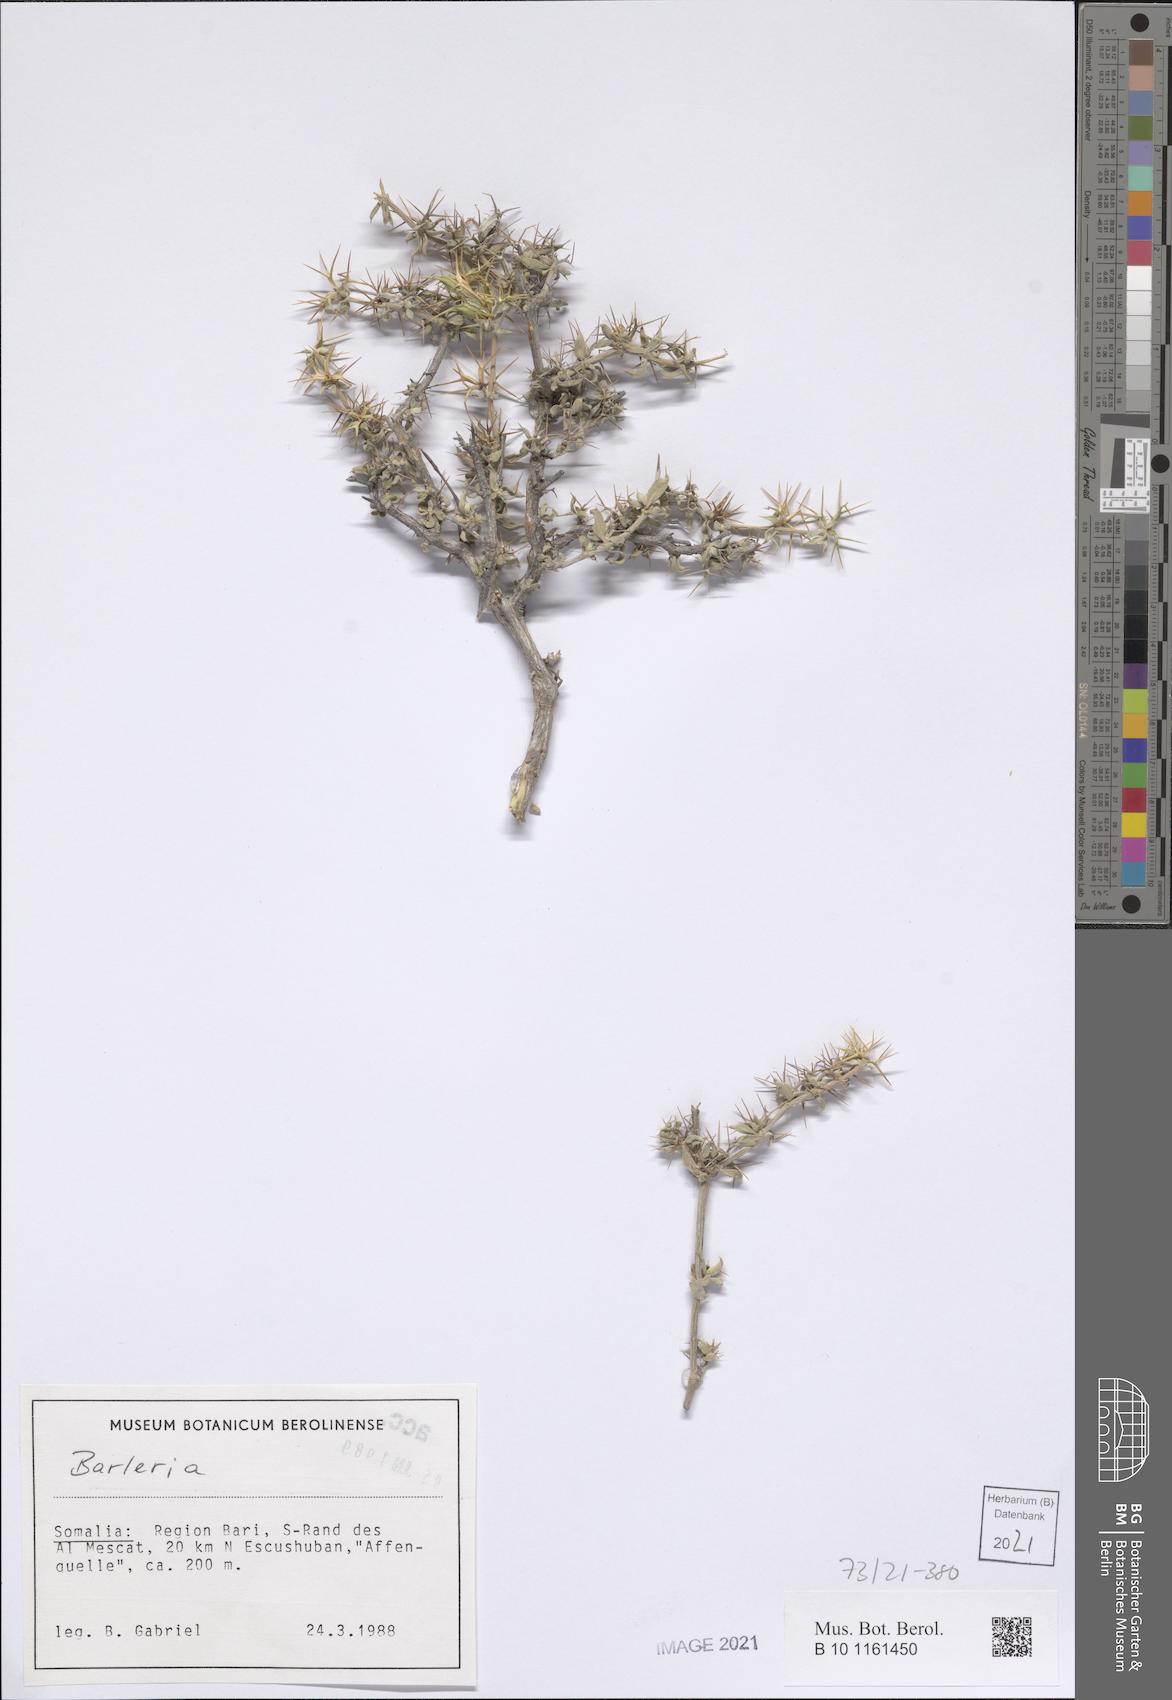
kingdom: Plantae
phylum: Tracheophyta
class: Magnoliopsida
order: Lamiales
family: Acanthaceae
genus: Blepharis
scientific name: Blepharis forgiarinii
